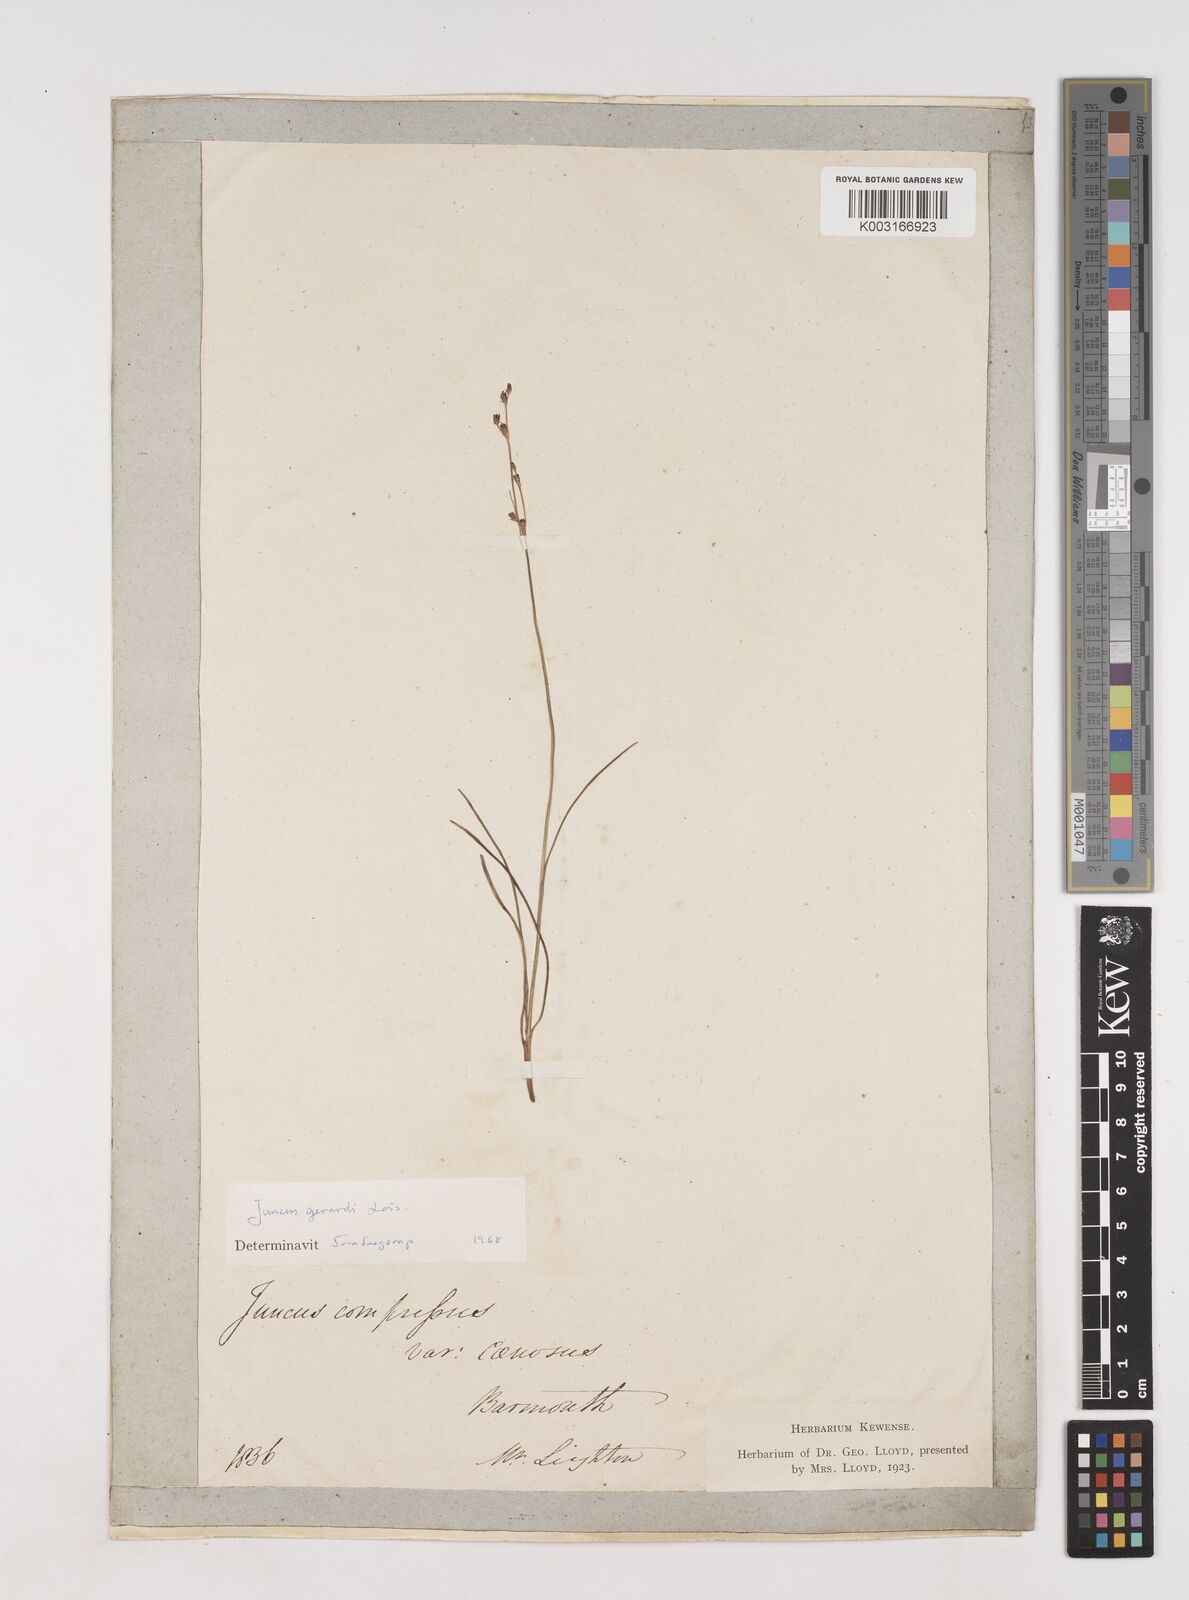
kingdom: Plantae
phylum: Tracheophyta
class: Liliopsida
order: Poales
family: Juncaceae
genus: Juncus
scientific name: Juncus gerardi
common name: Saltmarsh rush
